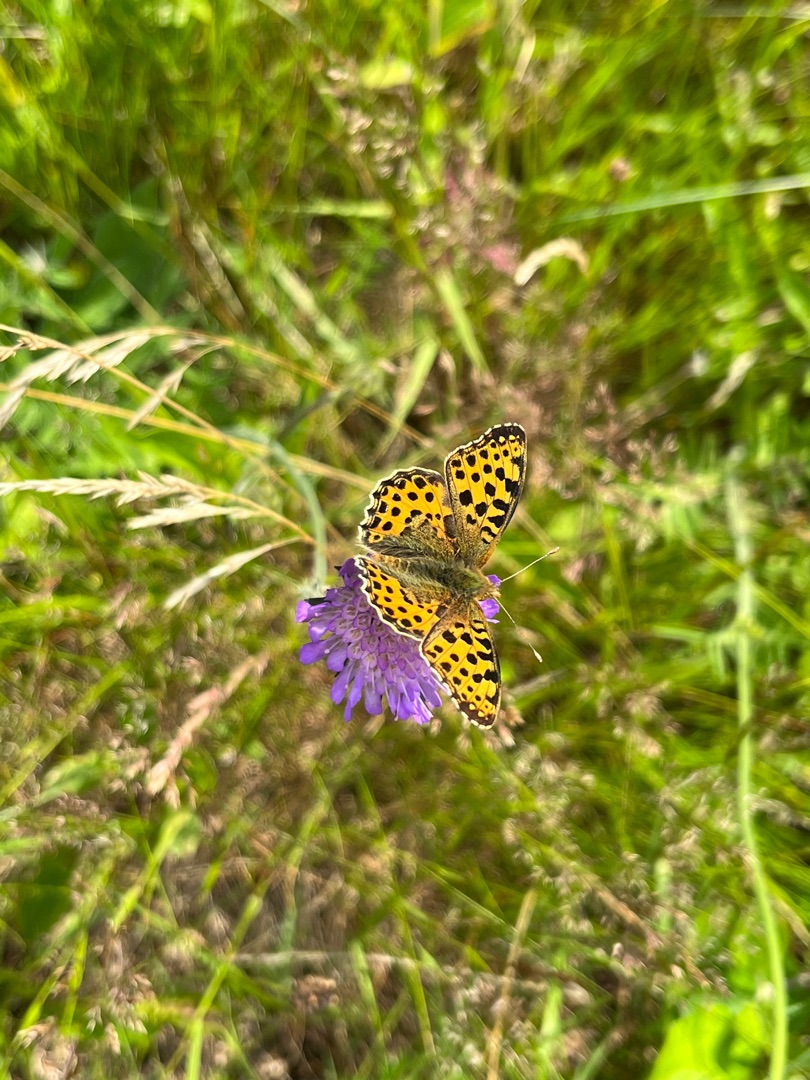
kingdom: Animalia
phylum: Arthropoda
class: Insecta
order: Lepidoptera
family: Nymphalidae
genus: Issoria
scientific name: Issoria lathonia
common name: Storplettet perlemorsommerfugl
